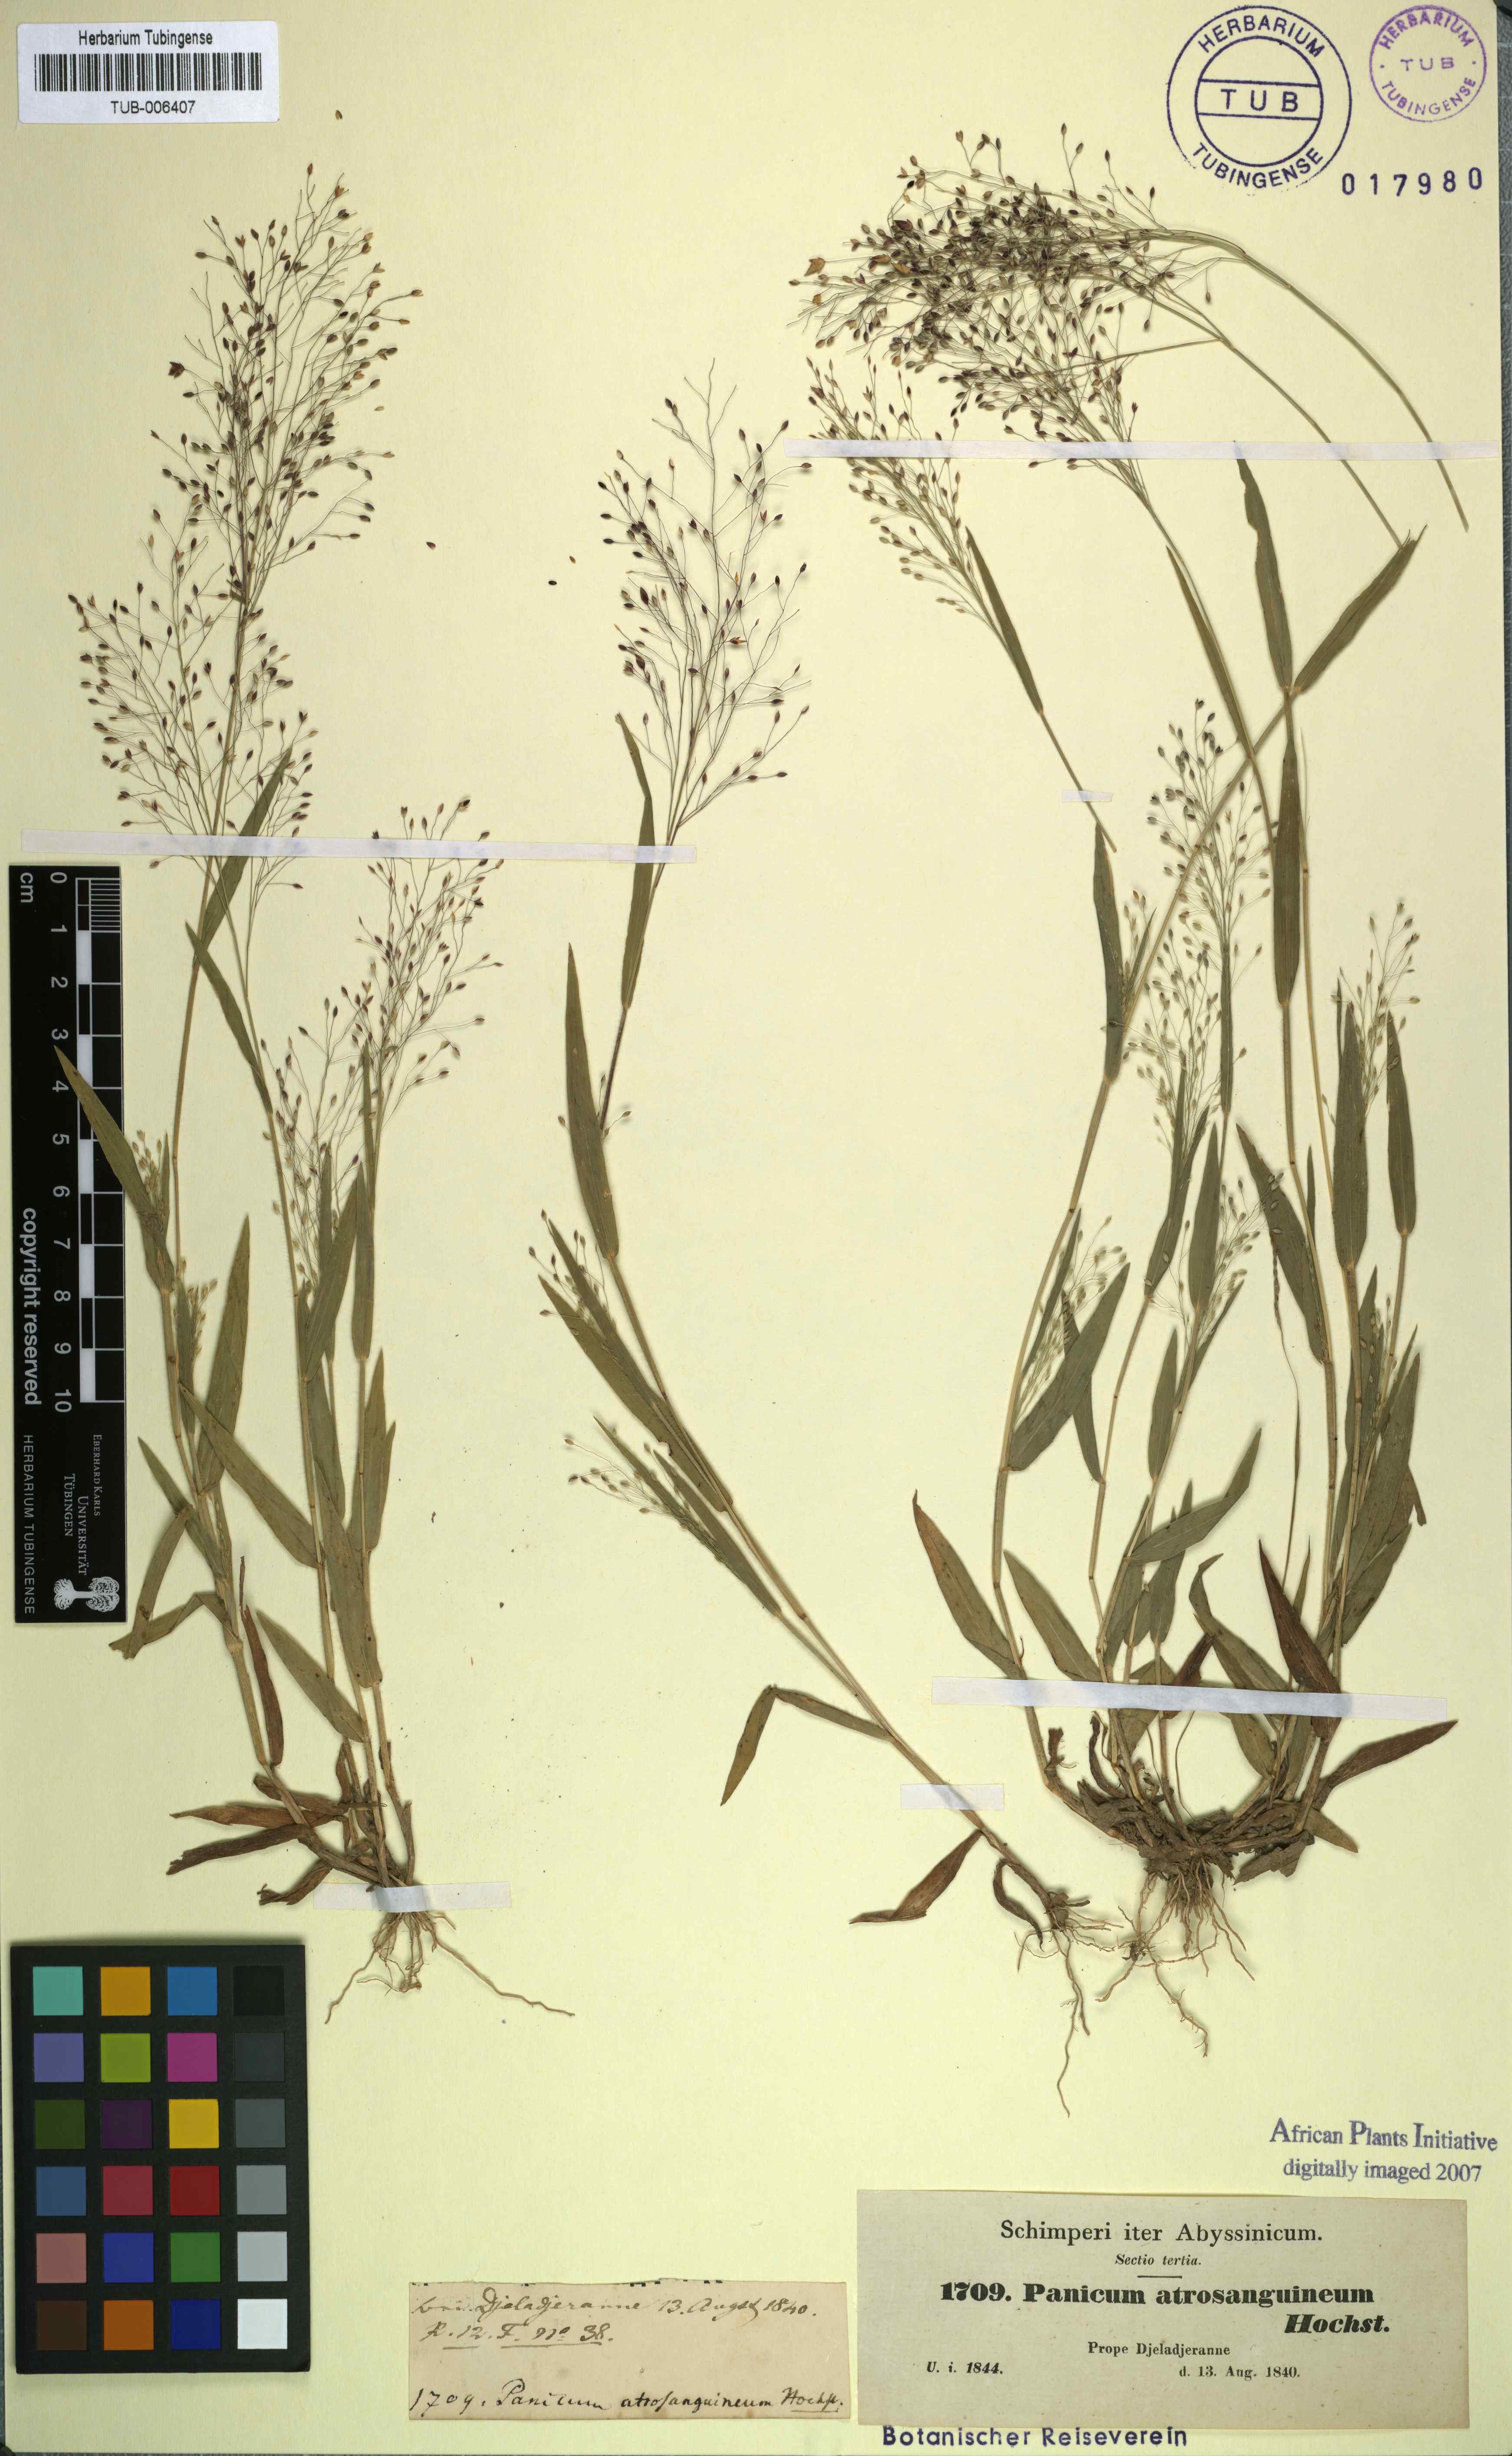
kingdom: Plantae
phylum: Tracheophyta
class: Liliopsida
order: Poales
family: Poaceae
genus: Panicum
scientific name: Panicum atrosanguineum
